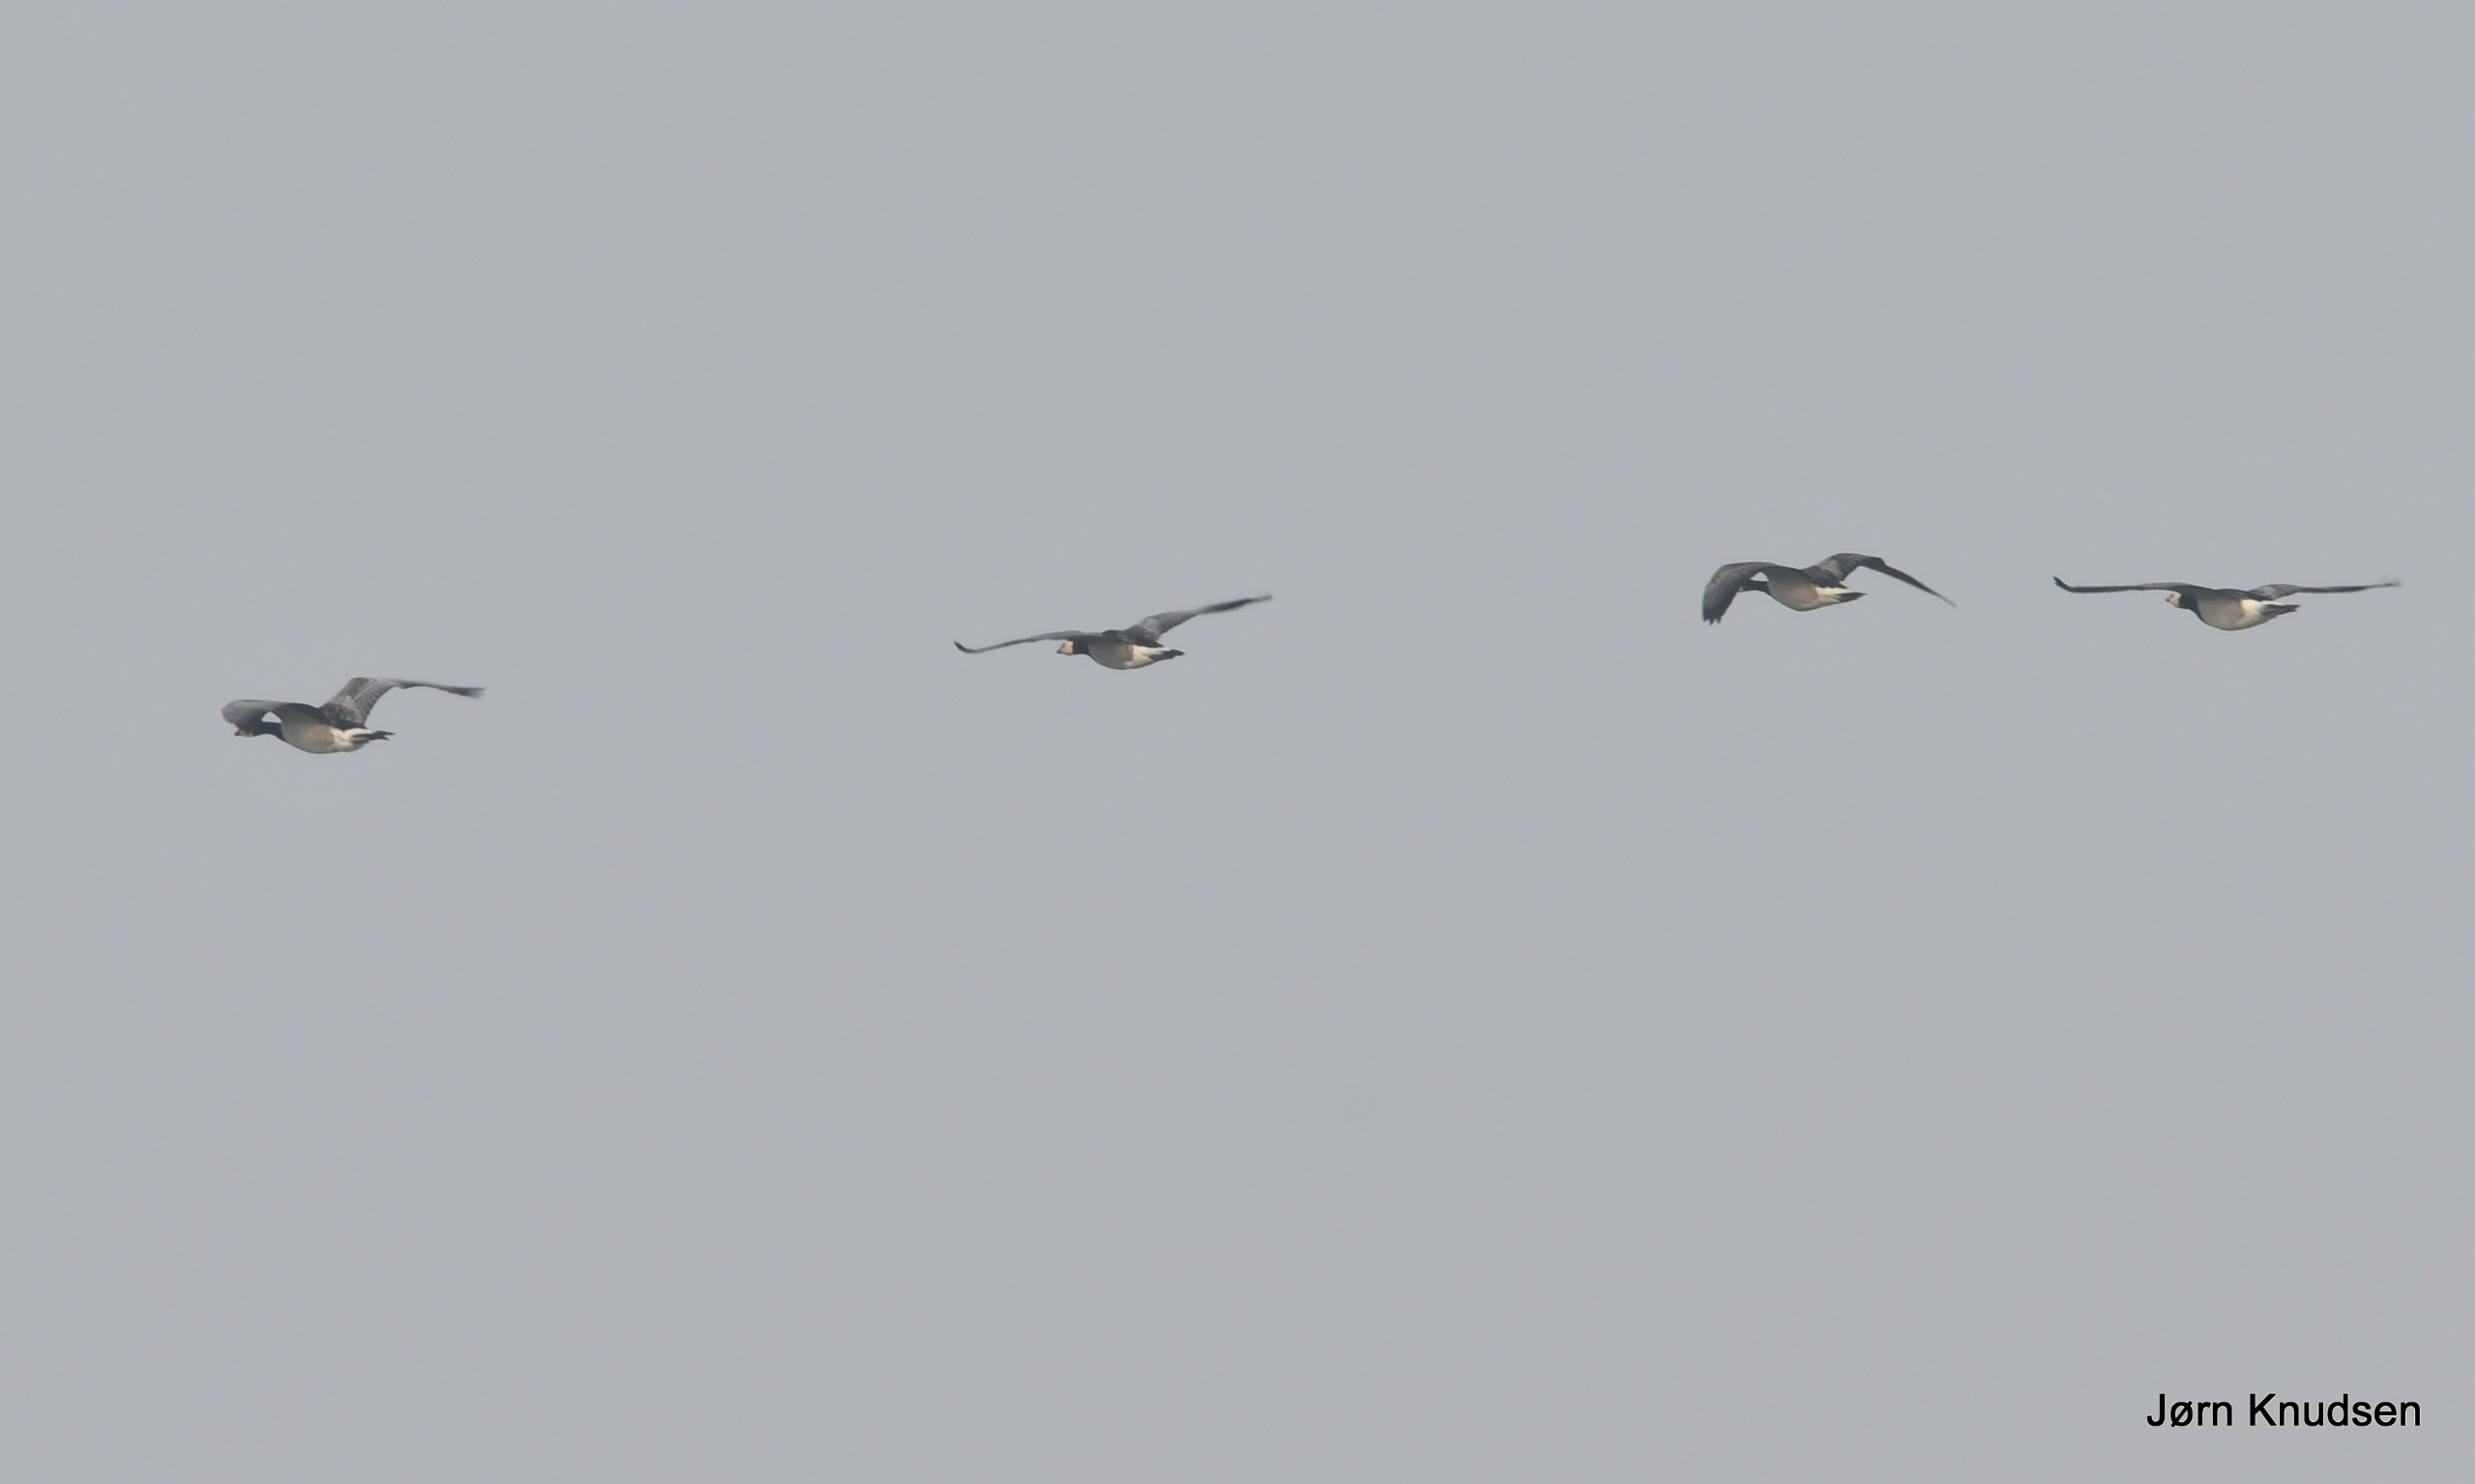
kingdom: Animalia
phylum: Chordata
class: Aves
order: Anseriformes
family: Anatidae
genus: Branta
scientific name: Branta leucopsis
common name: Bramgås
